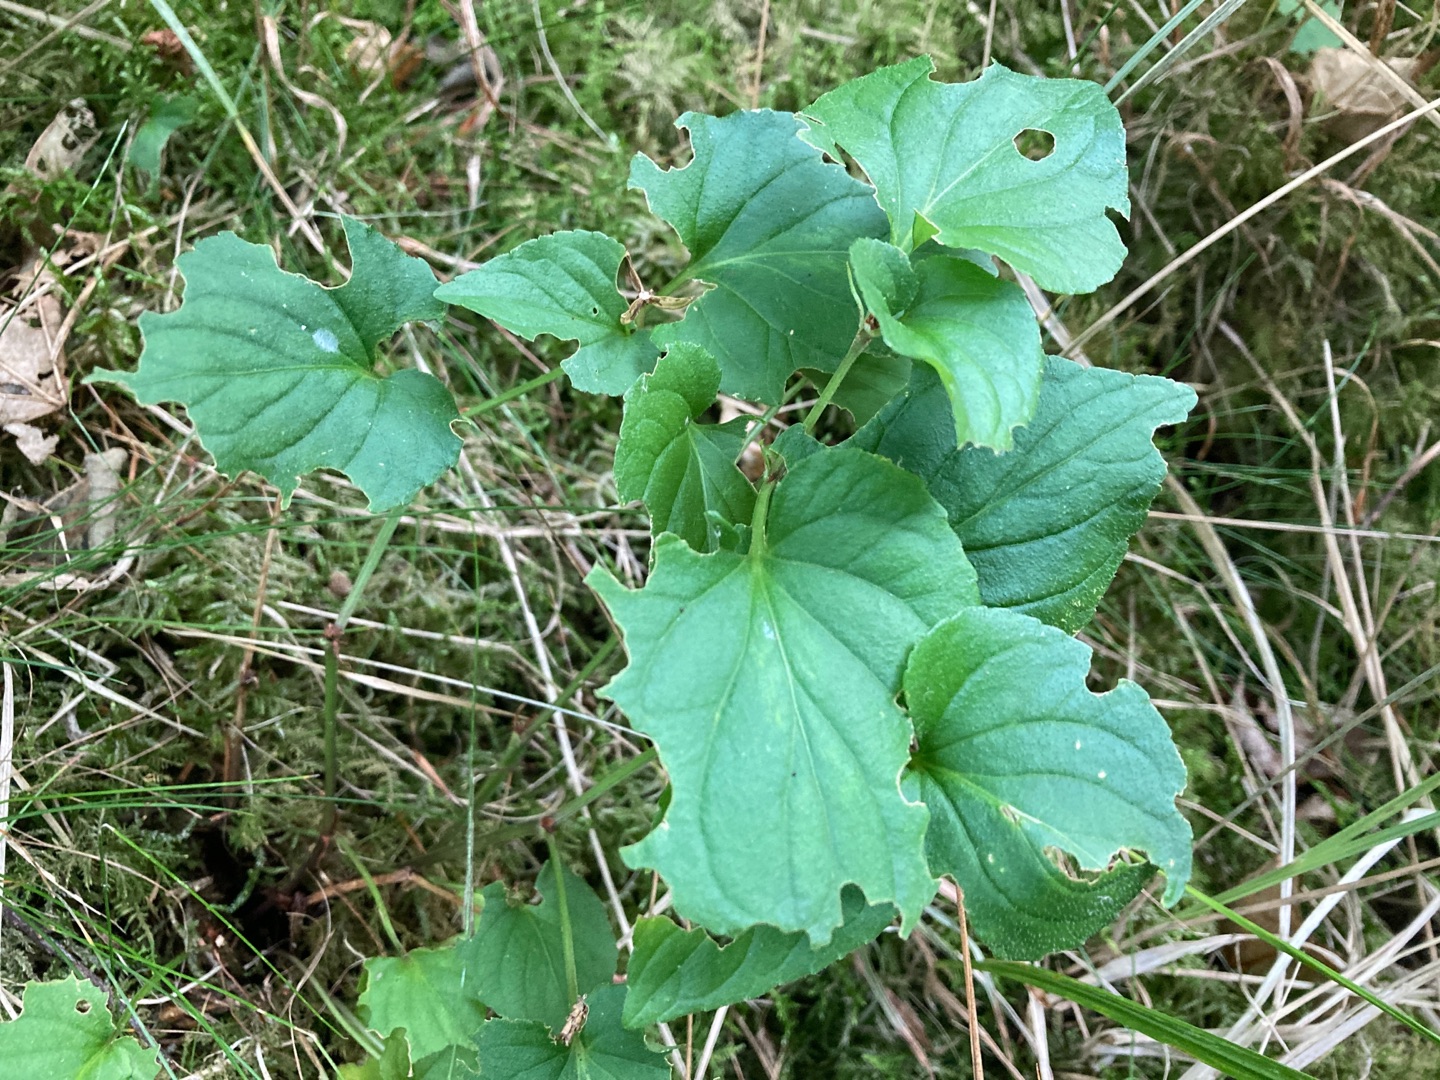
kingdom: Plantae
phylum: Tracheophyta
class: Magnoliopsida
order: Malpighiales
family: Violaceae
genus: Viola
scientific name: Viola
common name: Violslægten
